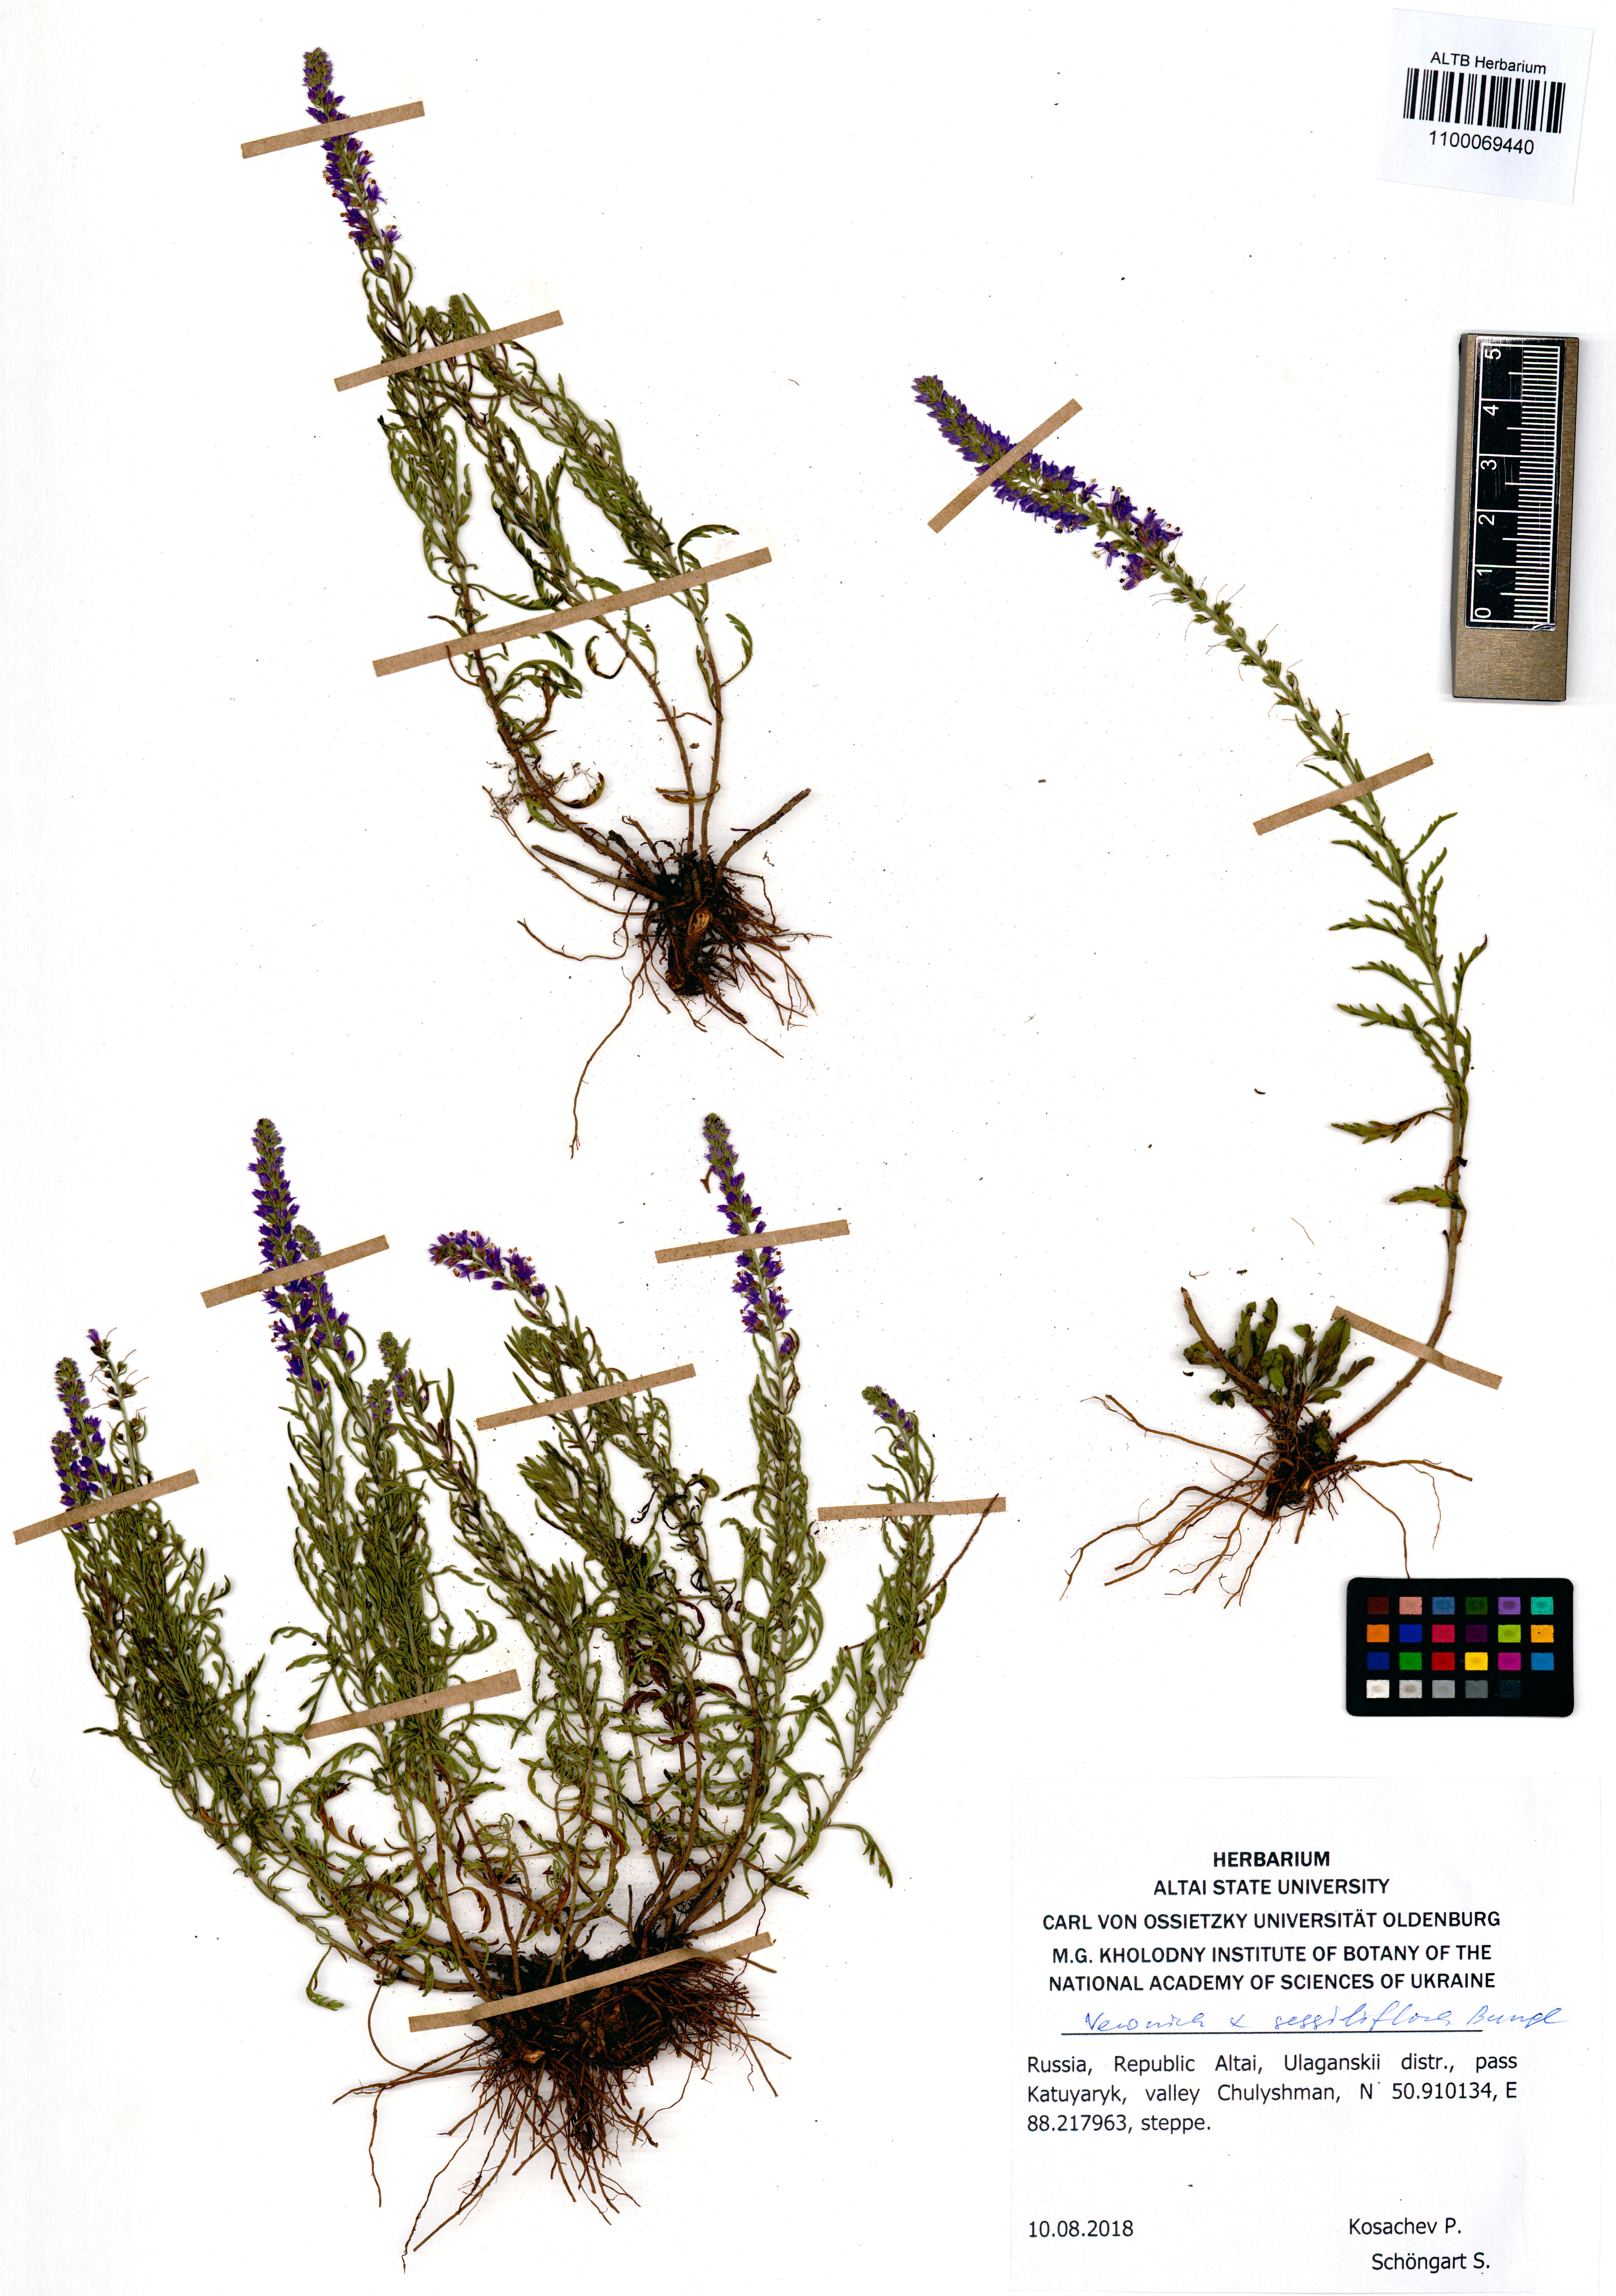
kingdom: Plantae
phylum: Tracheophyta
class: Magnoliopsida
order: Lamiales
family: Plantaginaceae
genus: Veronica
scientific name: Veronica sessiliflora
